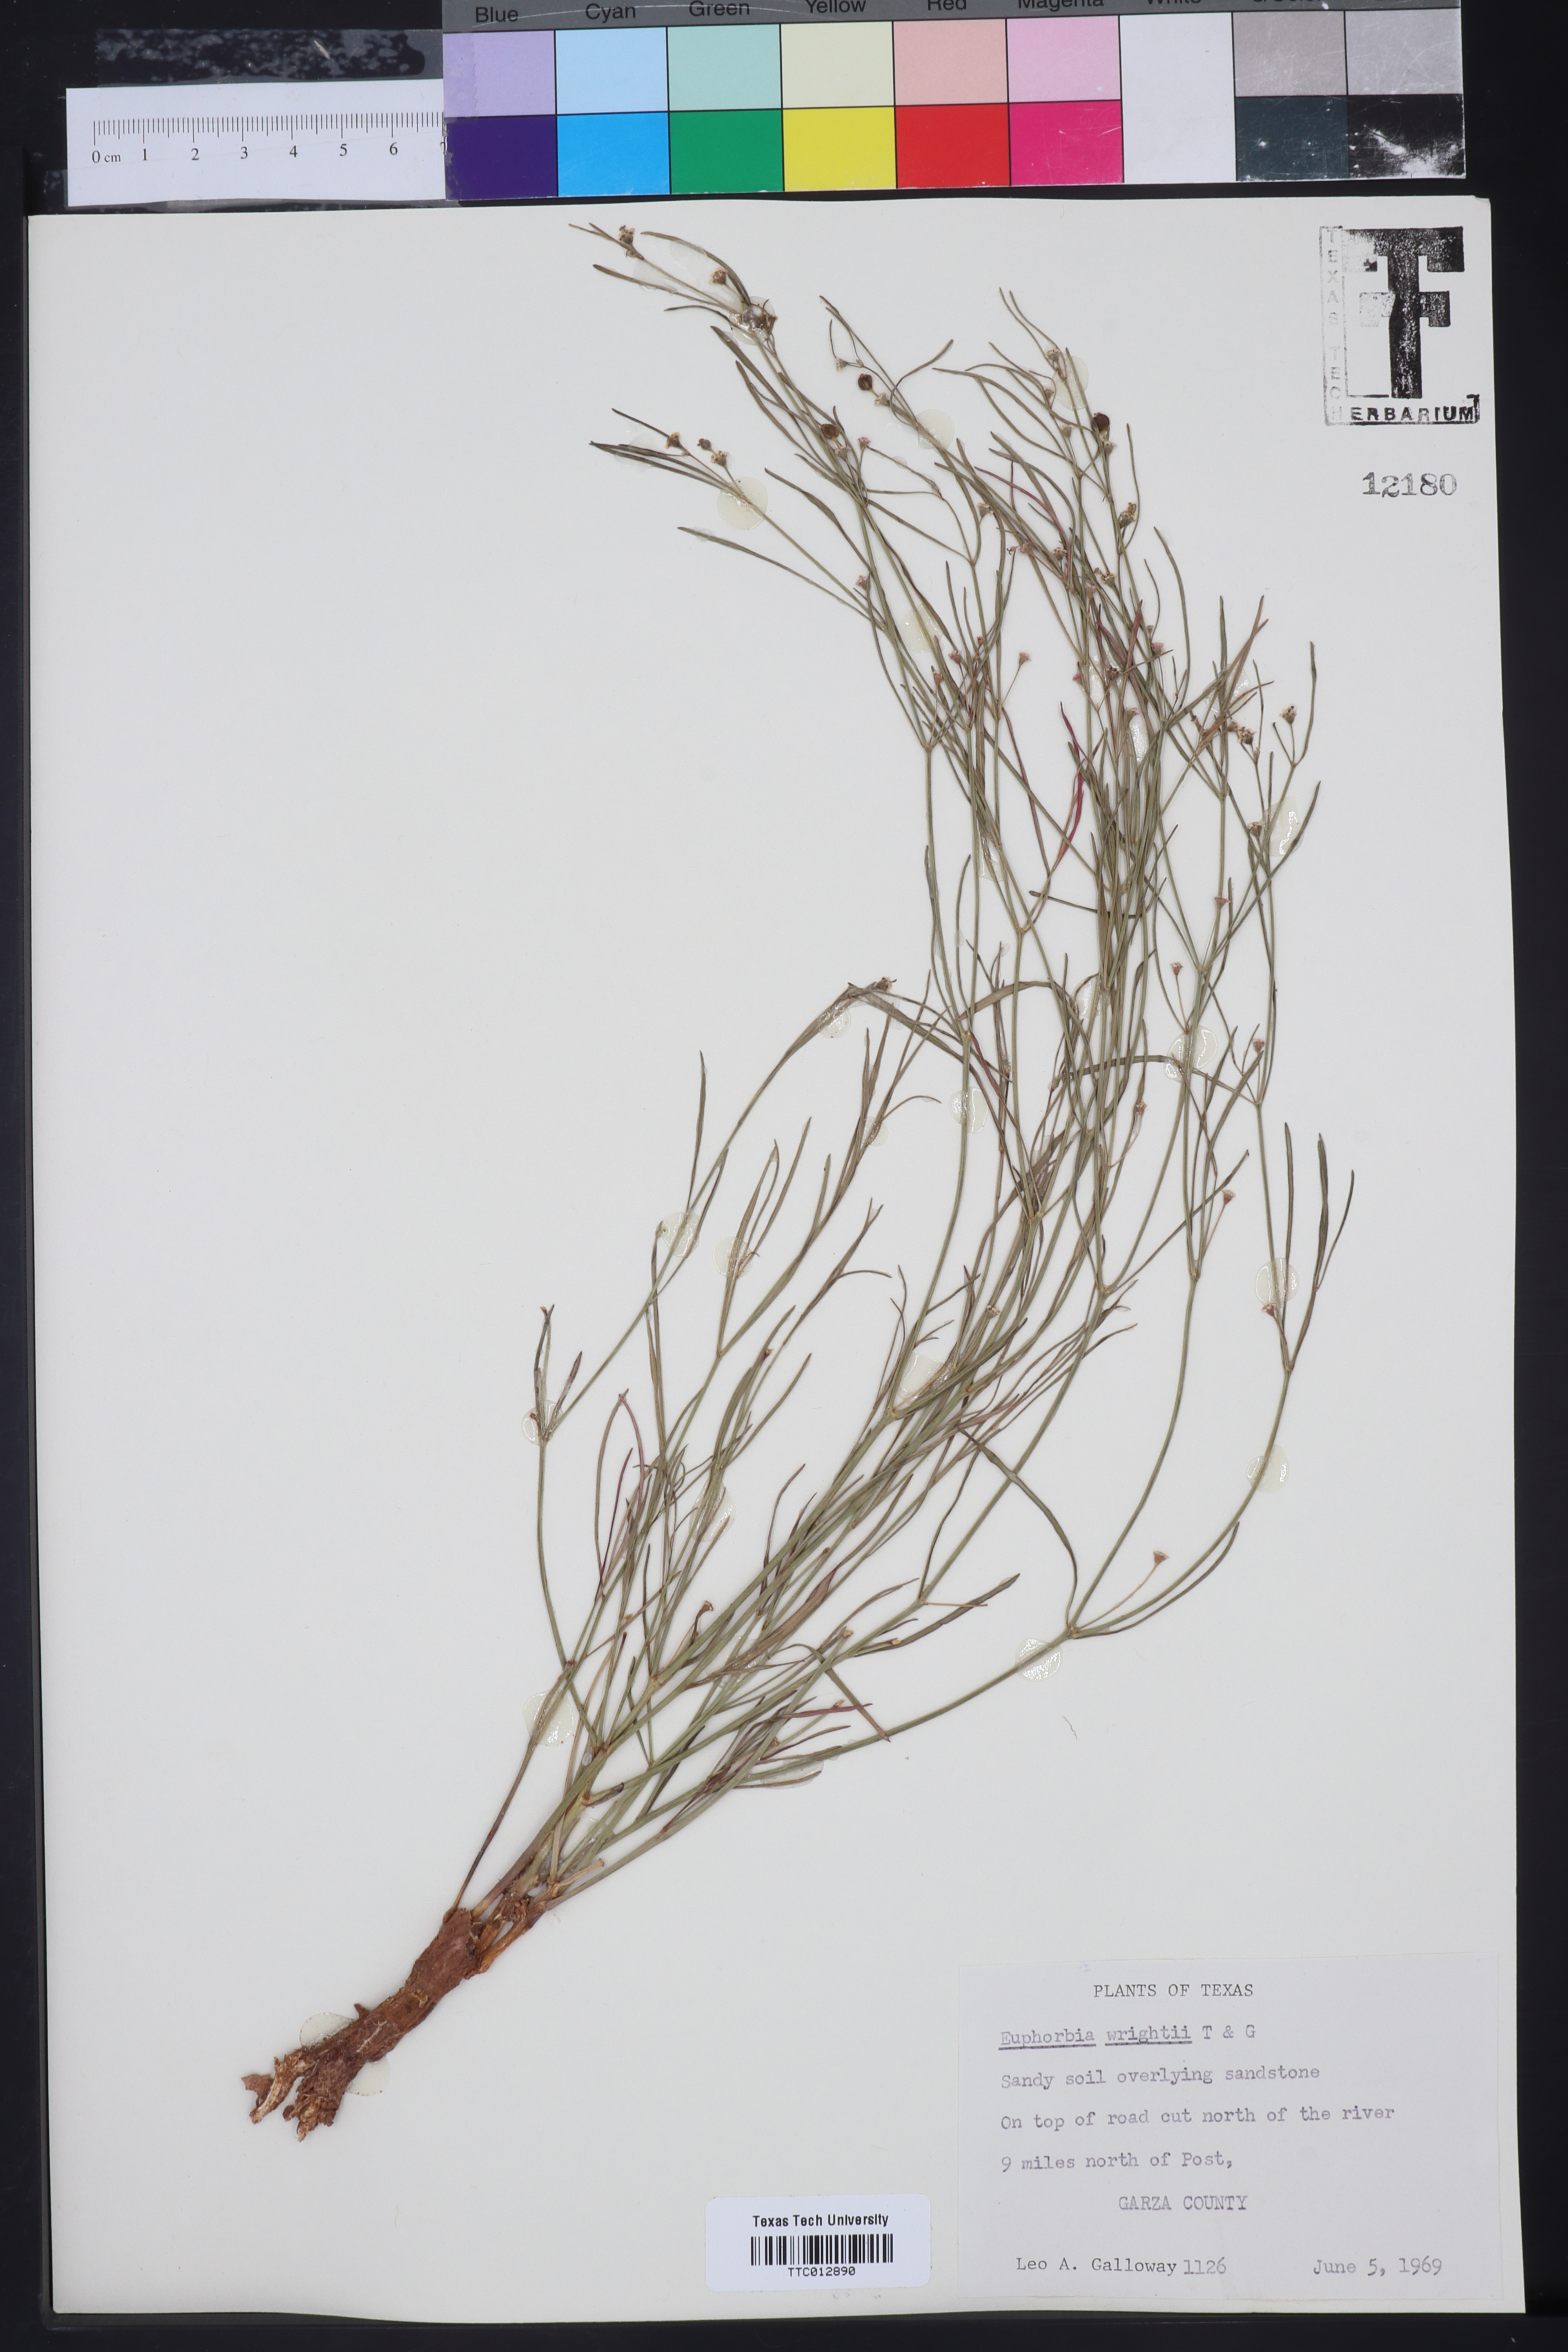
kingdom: Plantae
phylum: Tracheophyta
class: Magnoliopsida
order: Malpighiales
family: Euphorbiaceae
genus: Euphorbia
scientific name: Euphorbia wrightii
